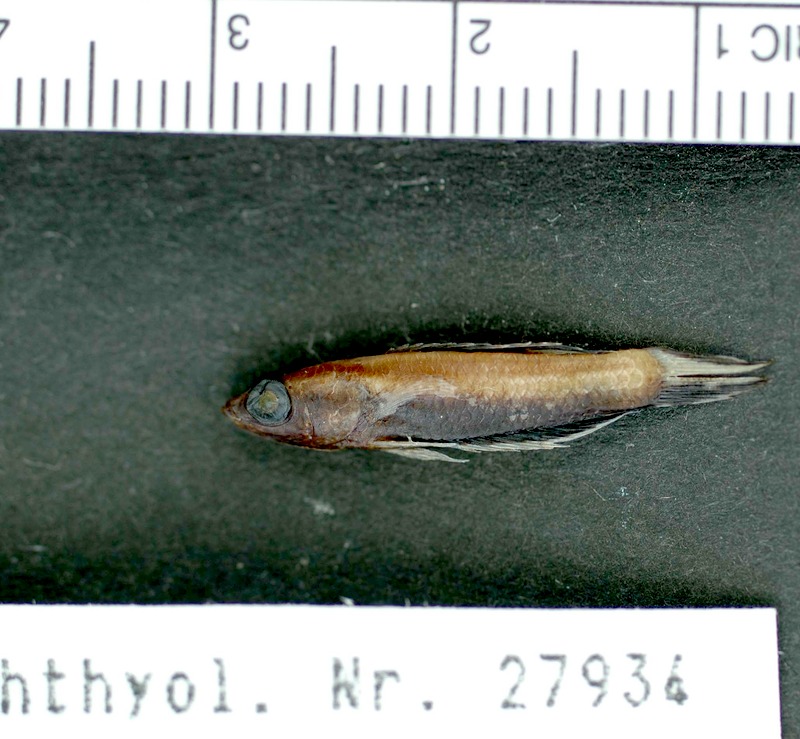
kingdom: Animalia
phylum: Chordata
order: Perciformes
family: Osphronemidae
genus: Betta
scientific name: Betta
